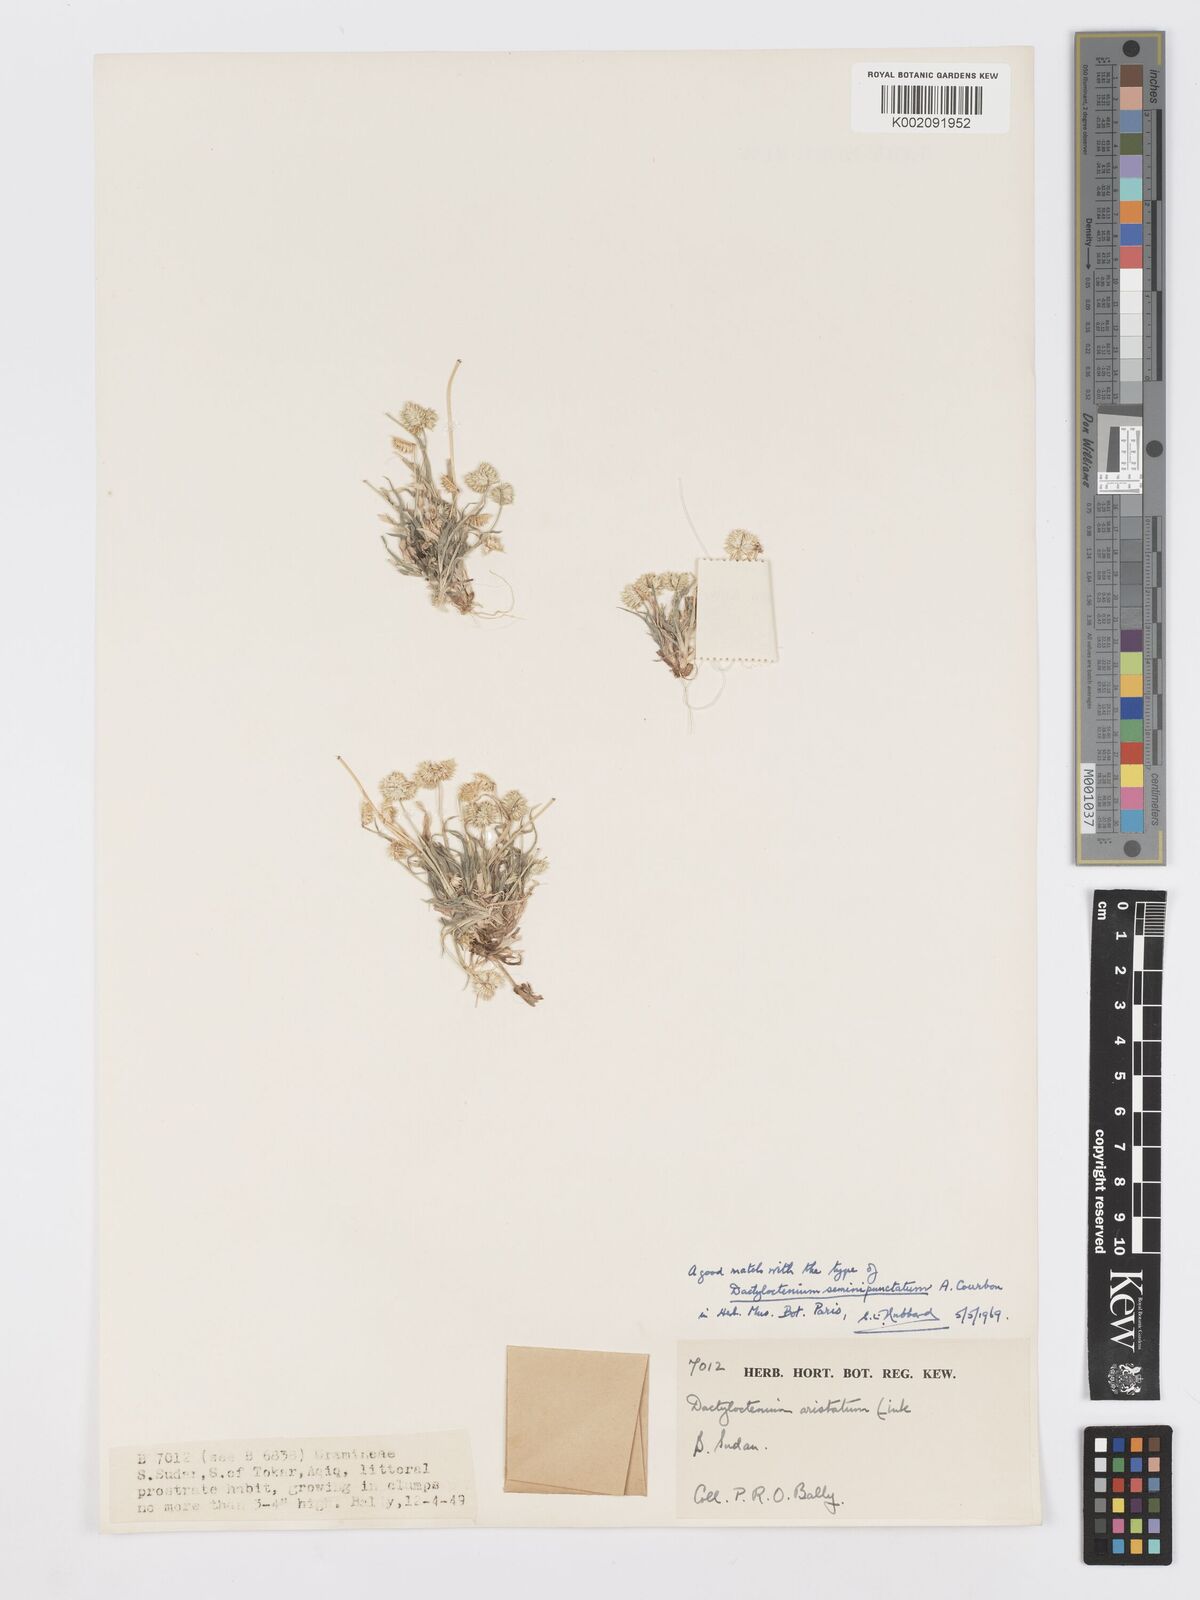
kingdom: Plantae
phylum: Tracheophyta
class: Liliopsida
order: Poales
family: Poaceae
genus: Dactyloctenium
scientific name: Dactyloctenium aristatum
